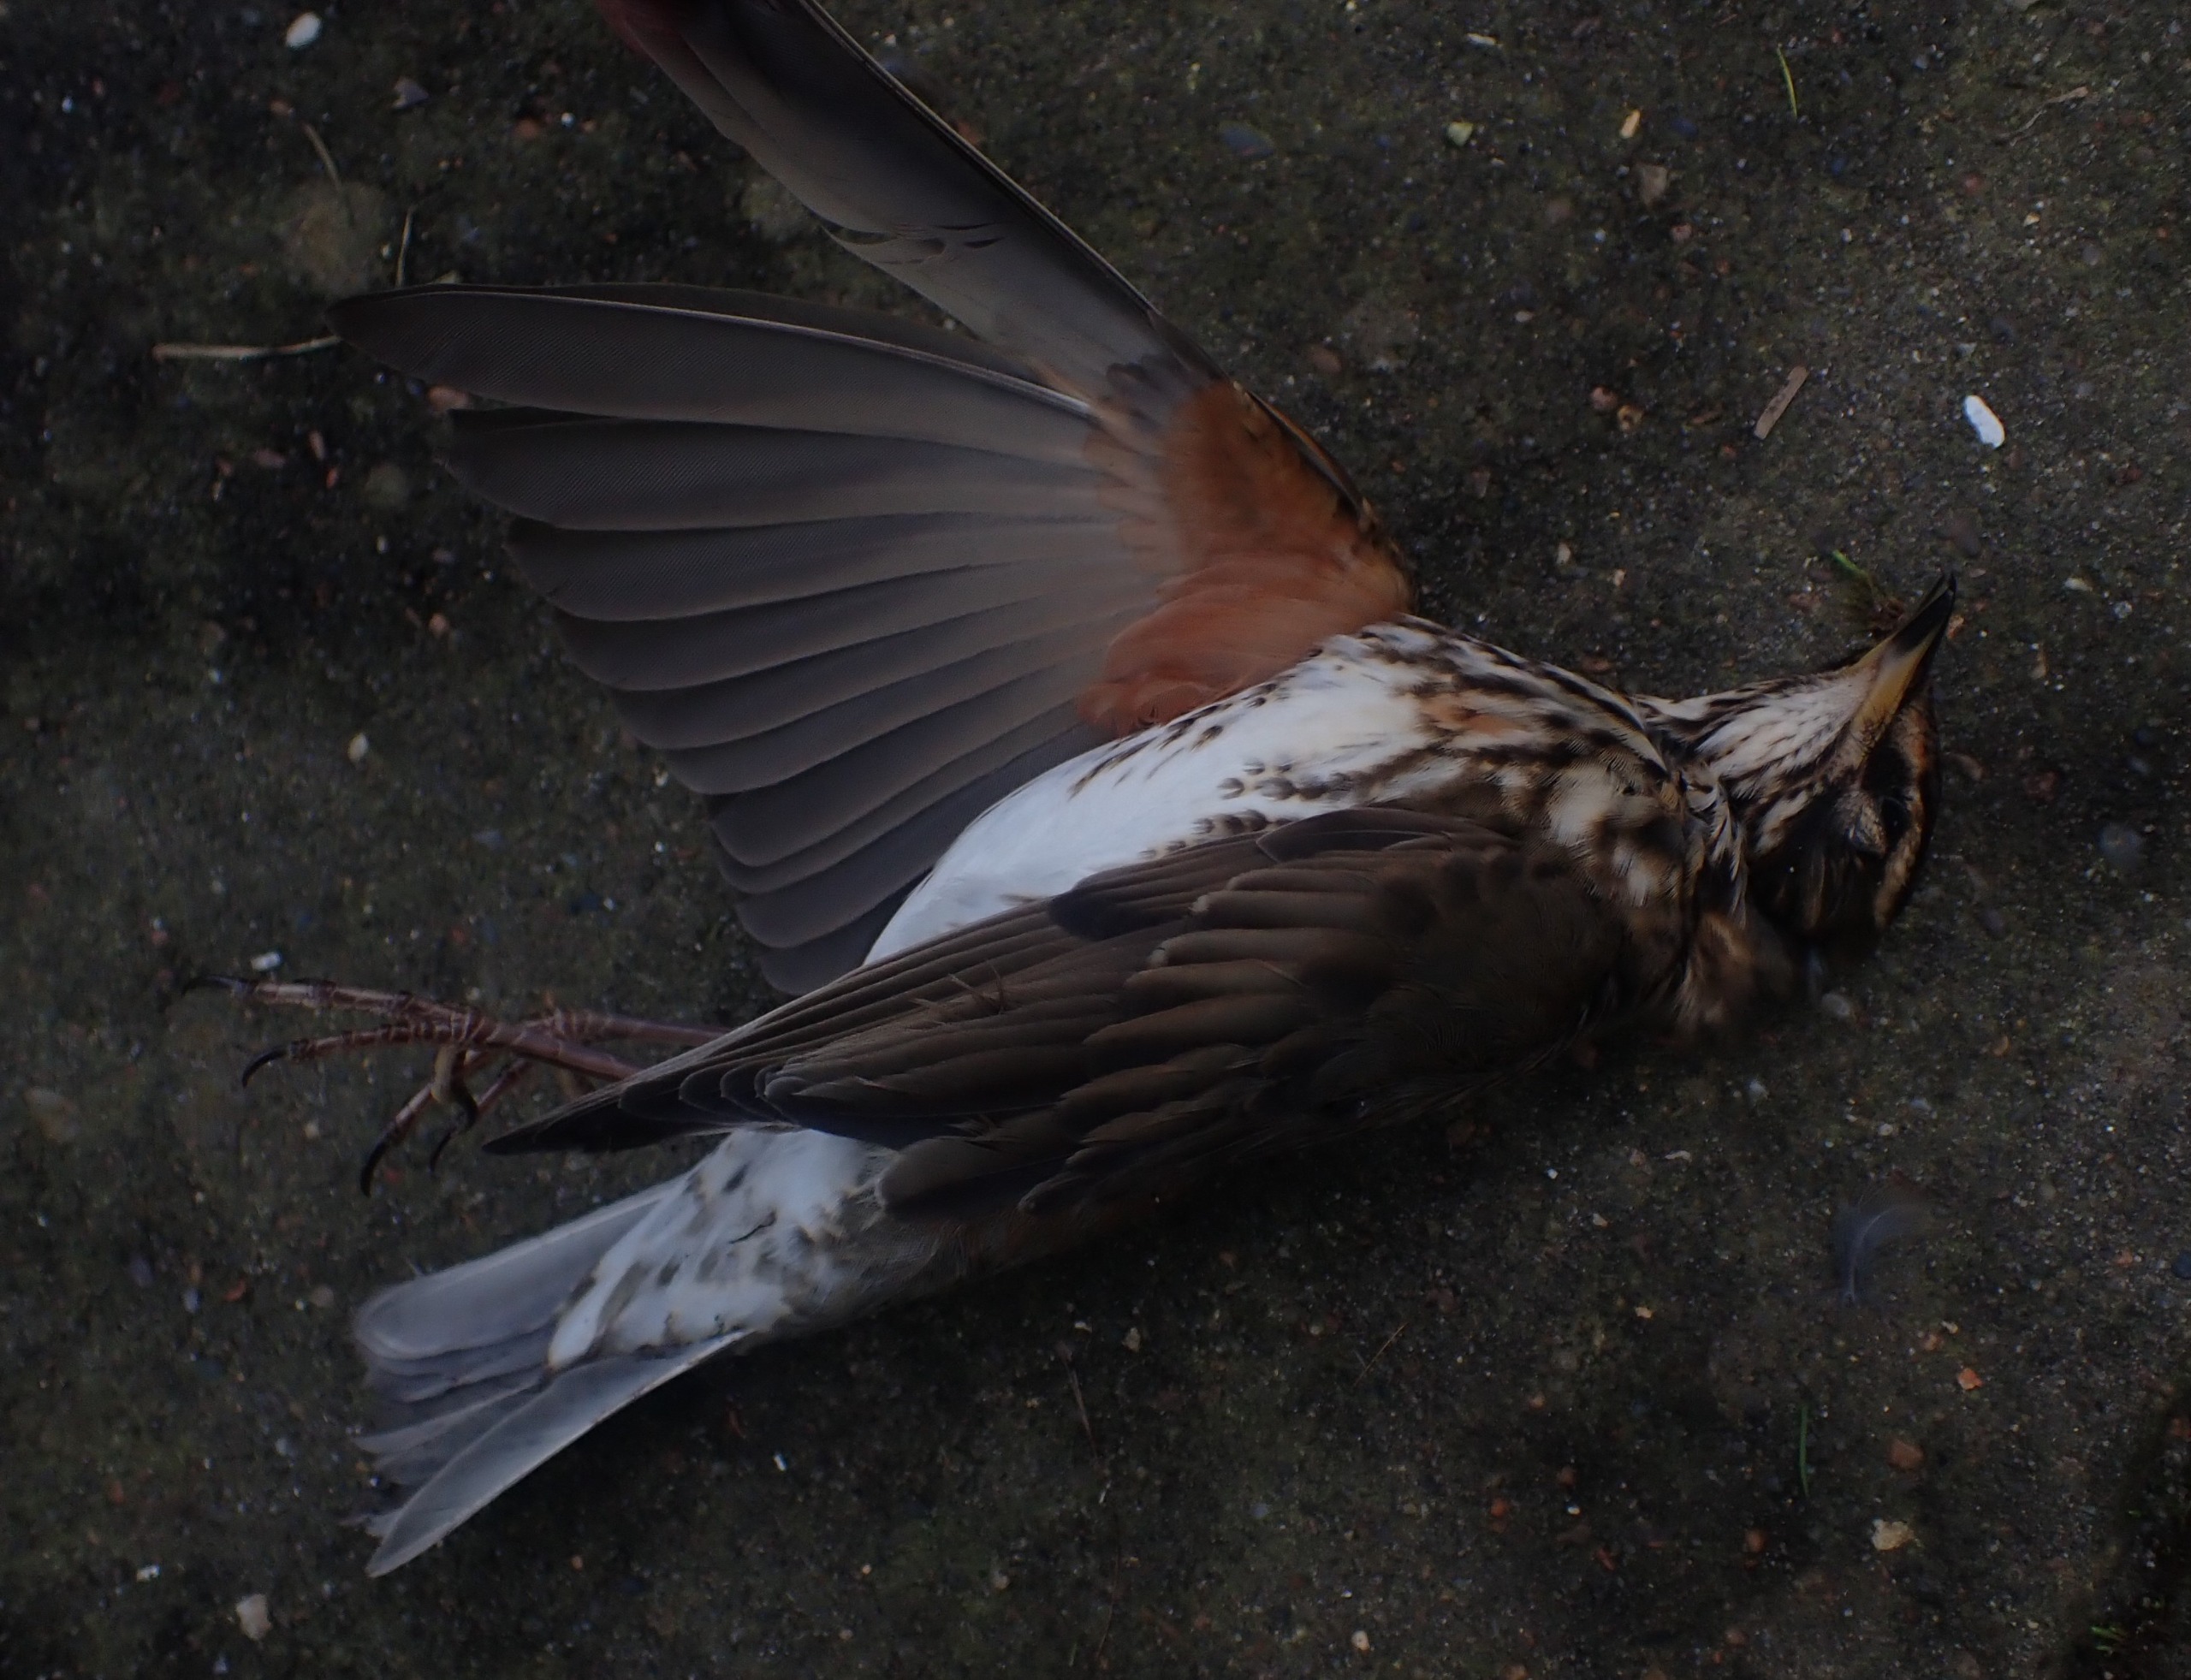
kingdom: Animalia
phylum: Chordata
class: Aves
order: Passeriformes
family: Turdidae
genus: Turdus
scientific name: Turdus iliacus
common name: Vindrossel
